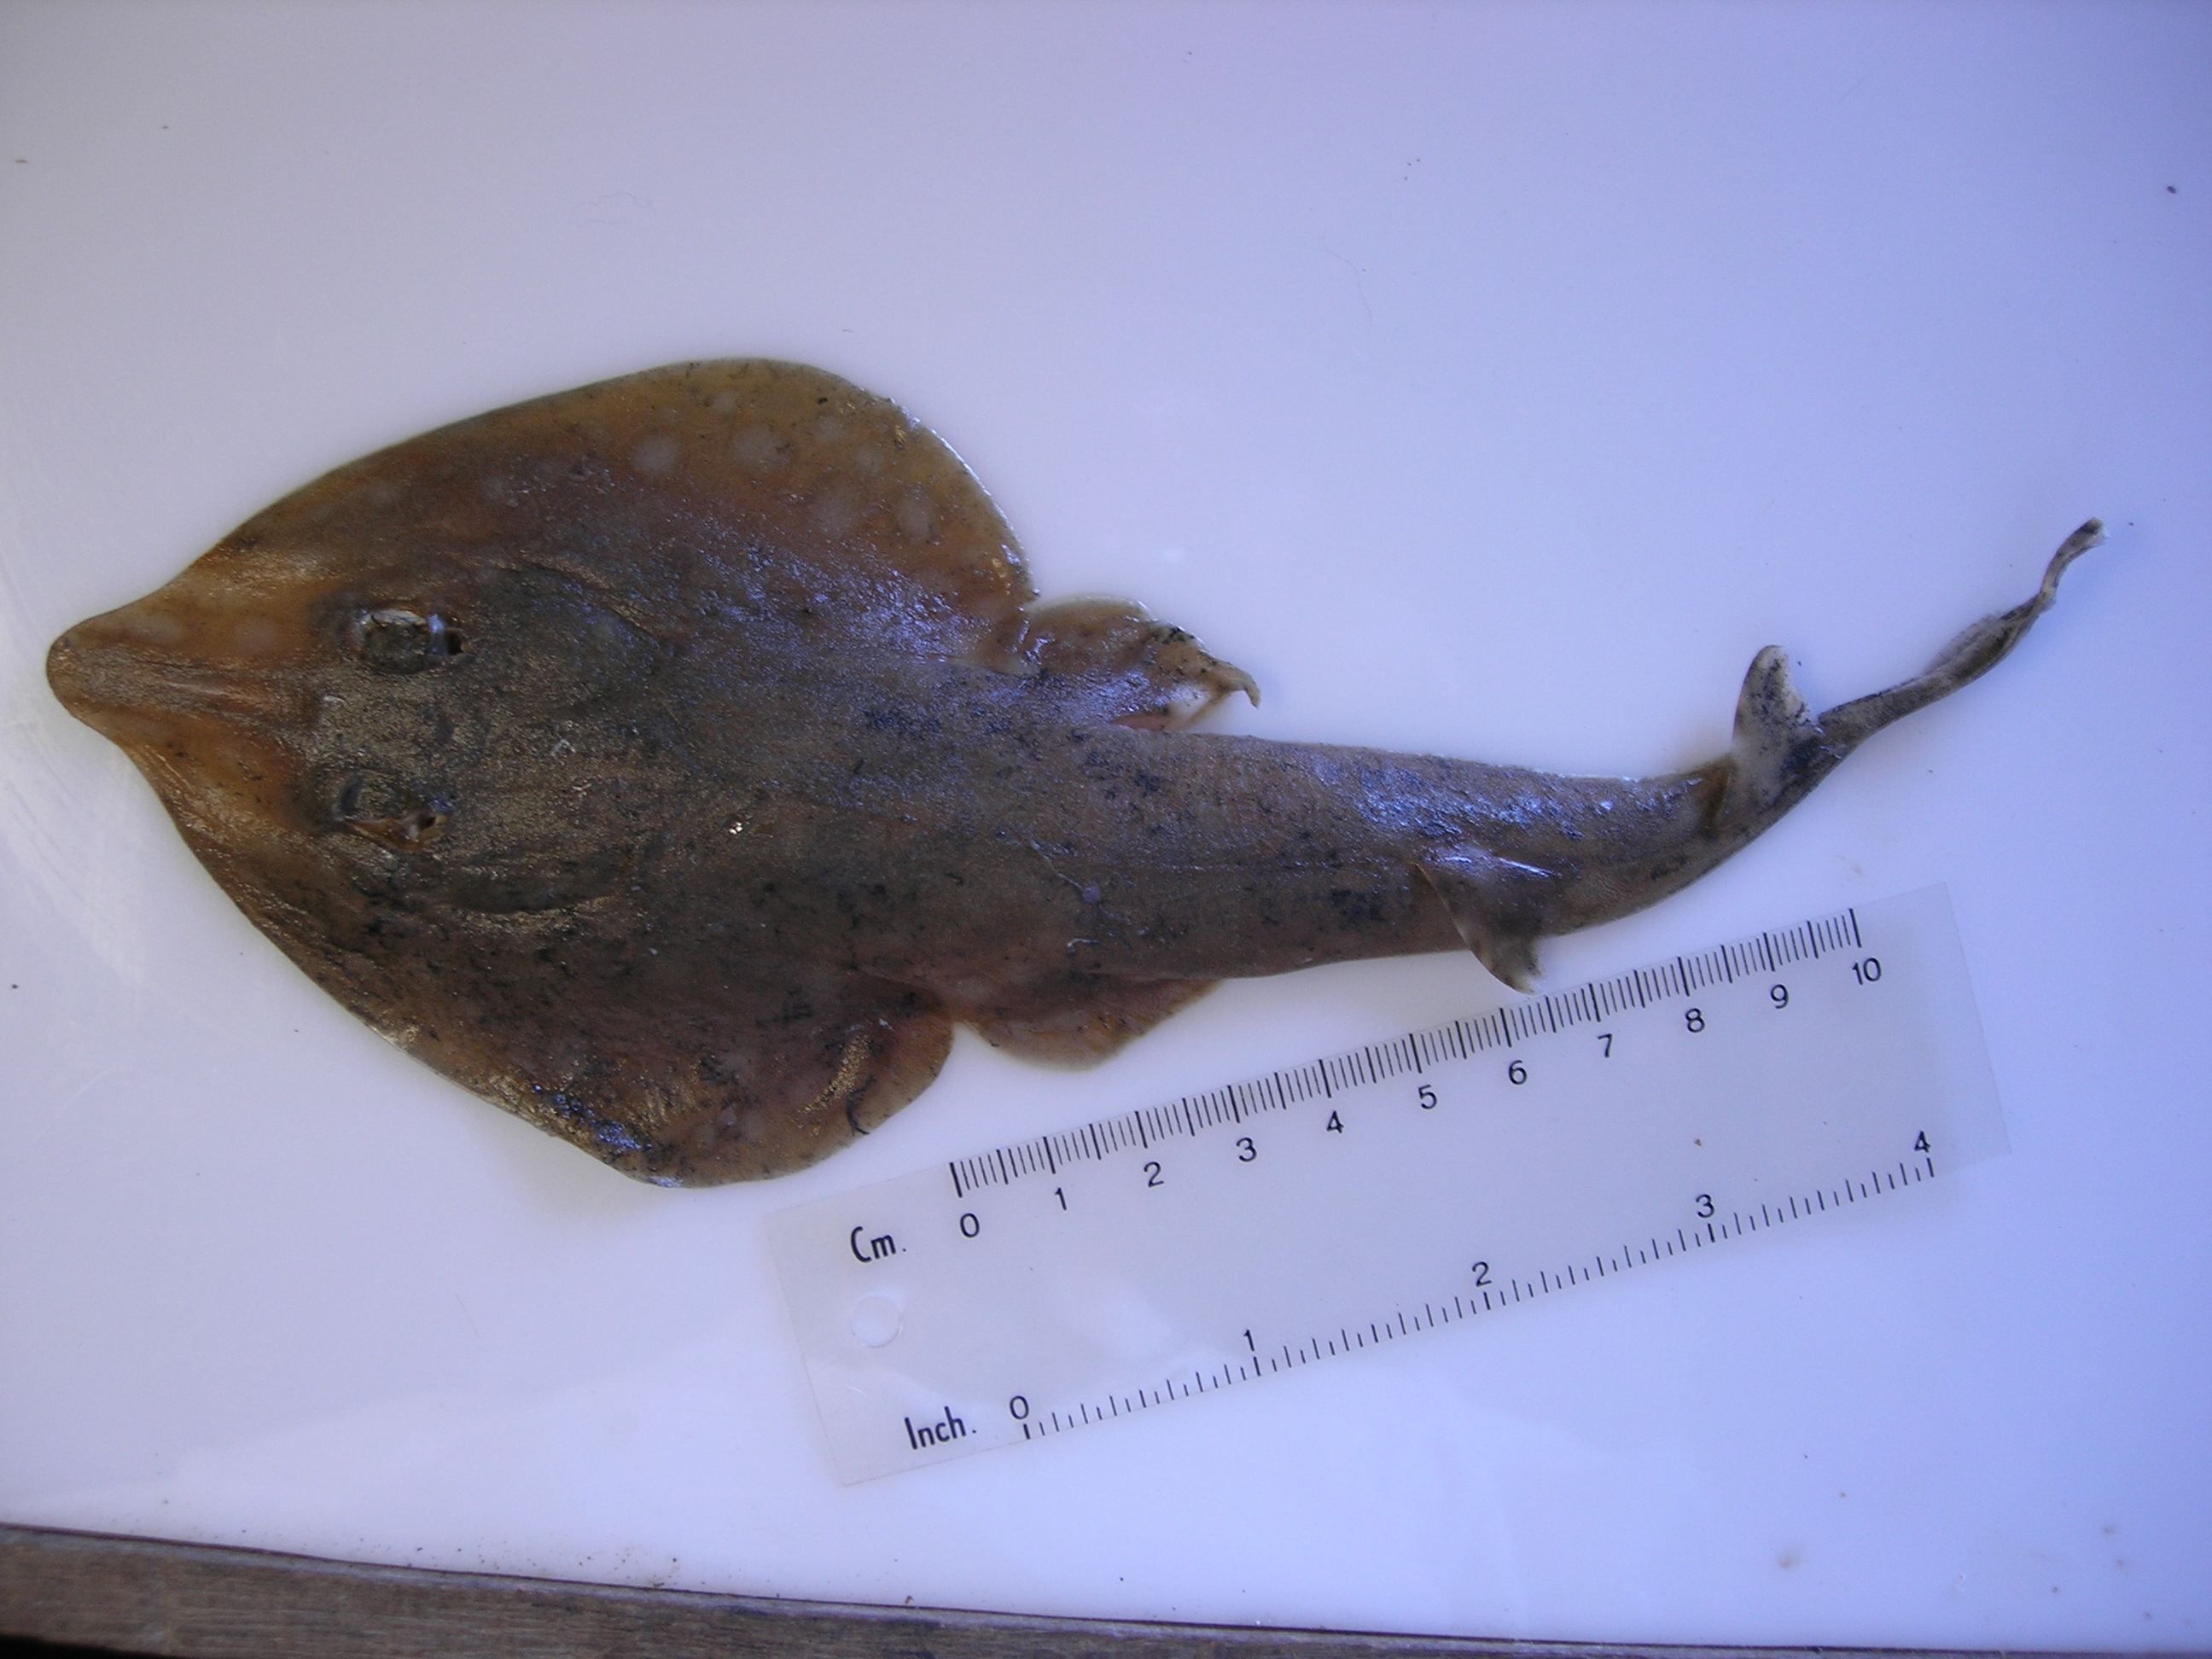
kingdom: Animalia
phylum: Chordata
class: Elasmobranchii
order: Rhinopristiformes
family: Rhinobatidae
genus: Acroteriobatus
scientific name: Acroteriobatus leucospilus
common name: Greyspot guitarfish
